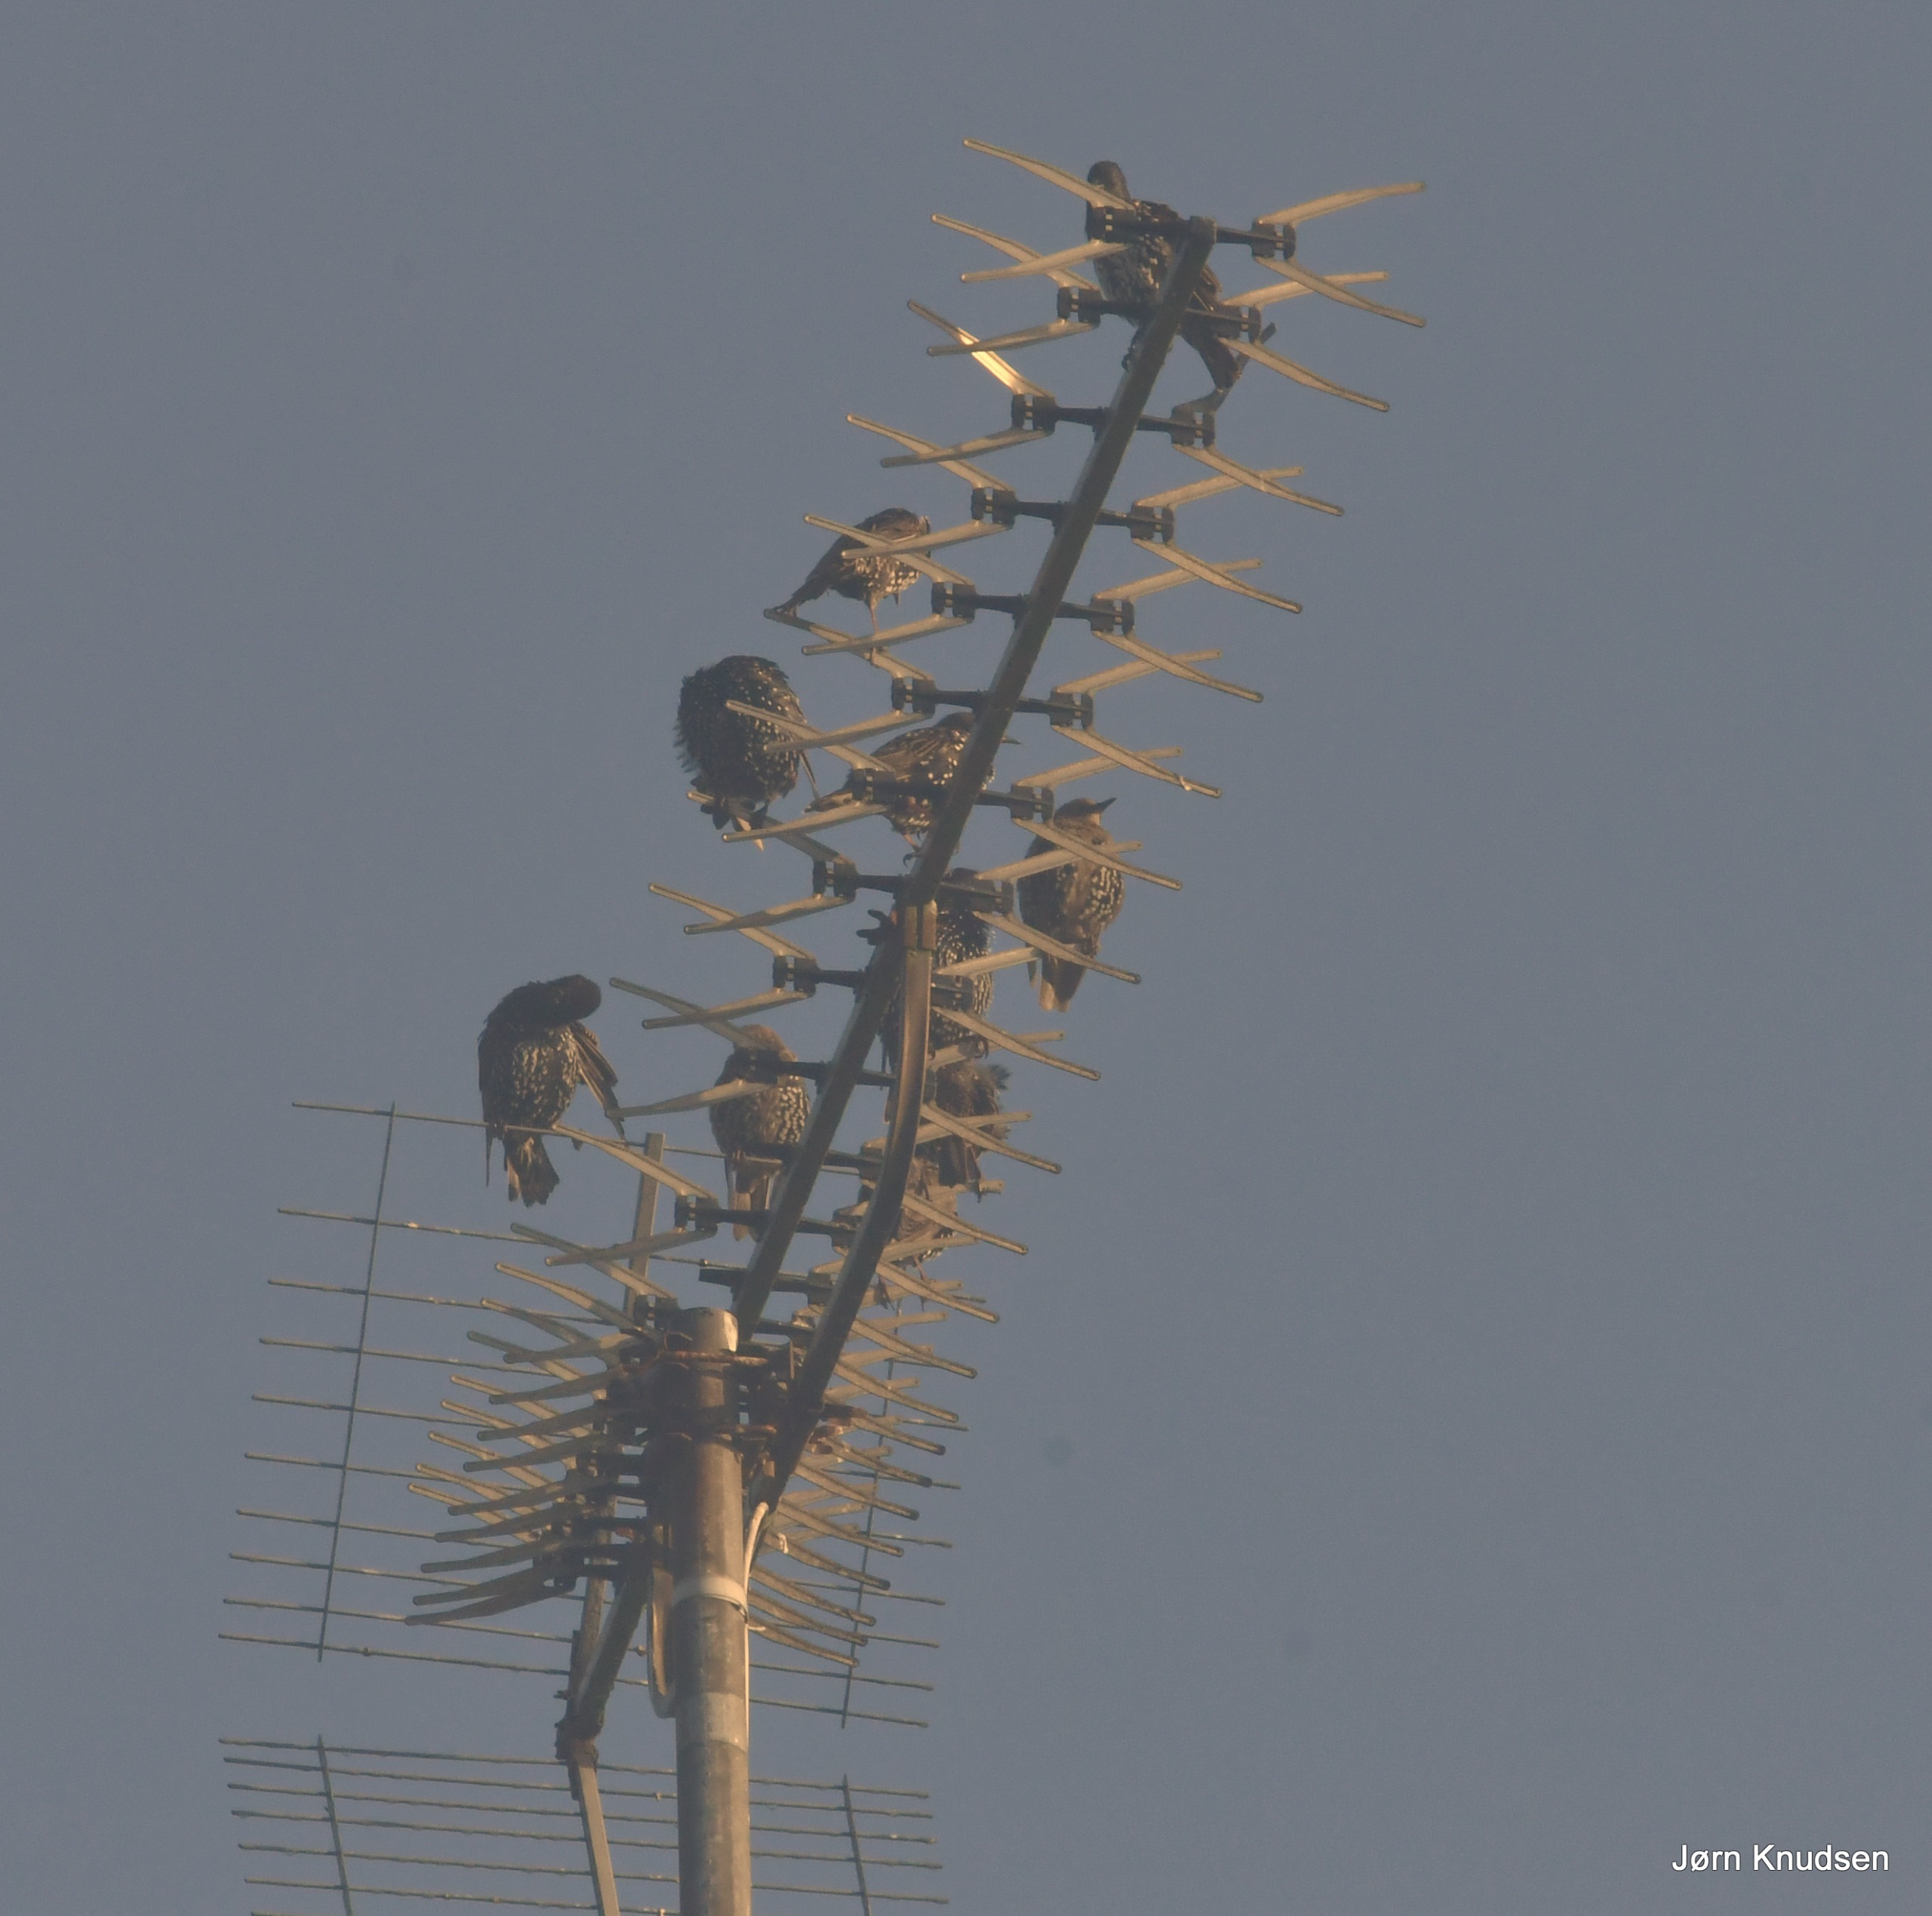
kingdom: Animalia
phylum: Chordata
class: Aves
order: Passeriformes
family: Sturnidae
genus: Sturnus
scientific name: Sturnus vulgaris
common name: Stær
